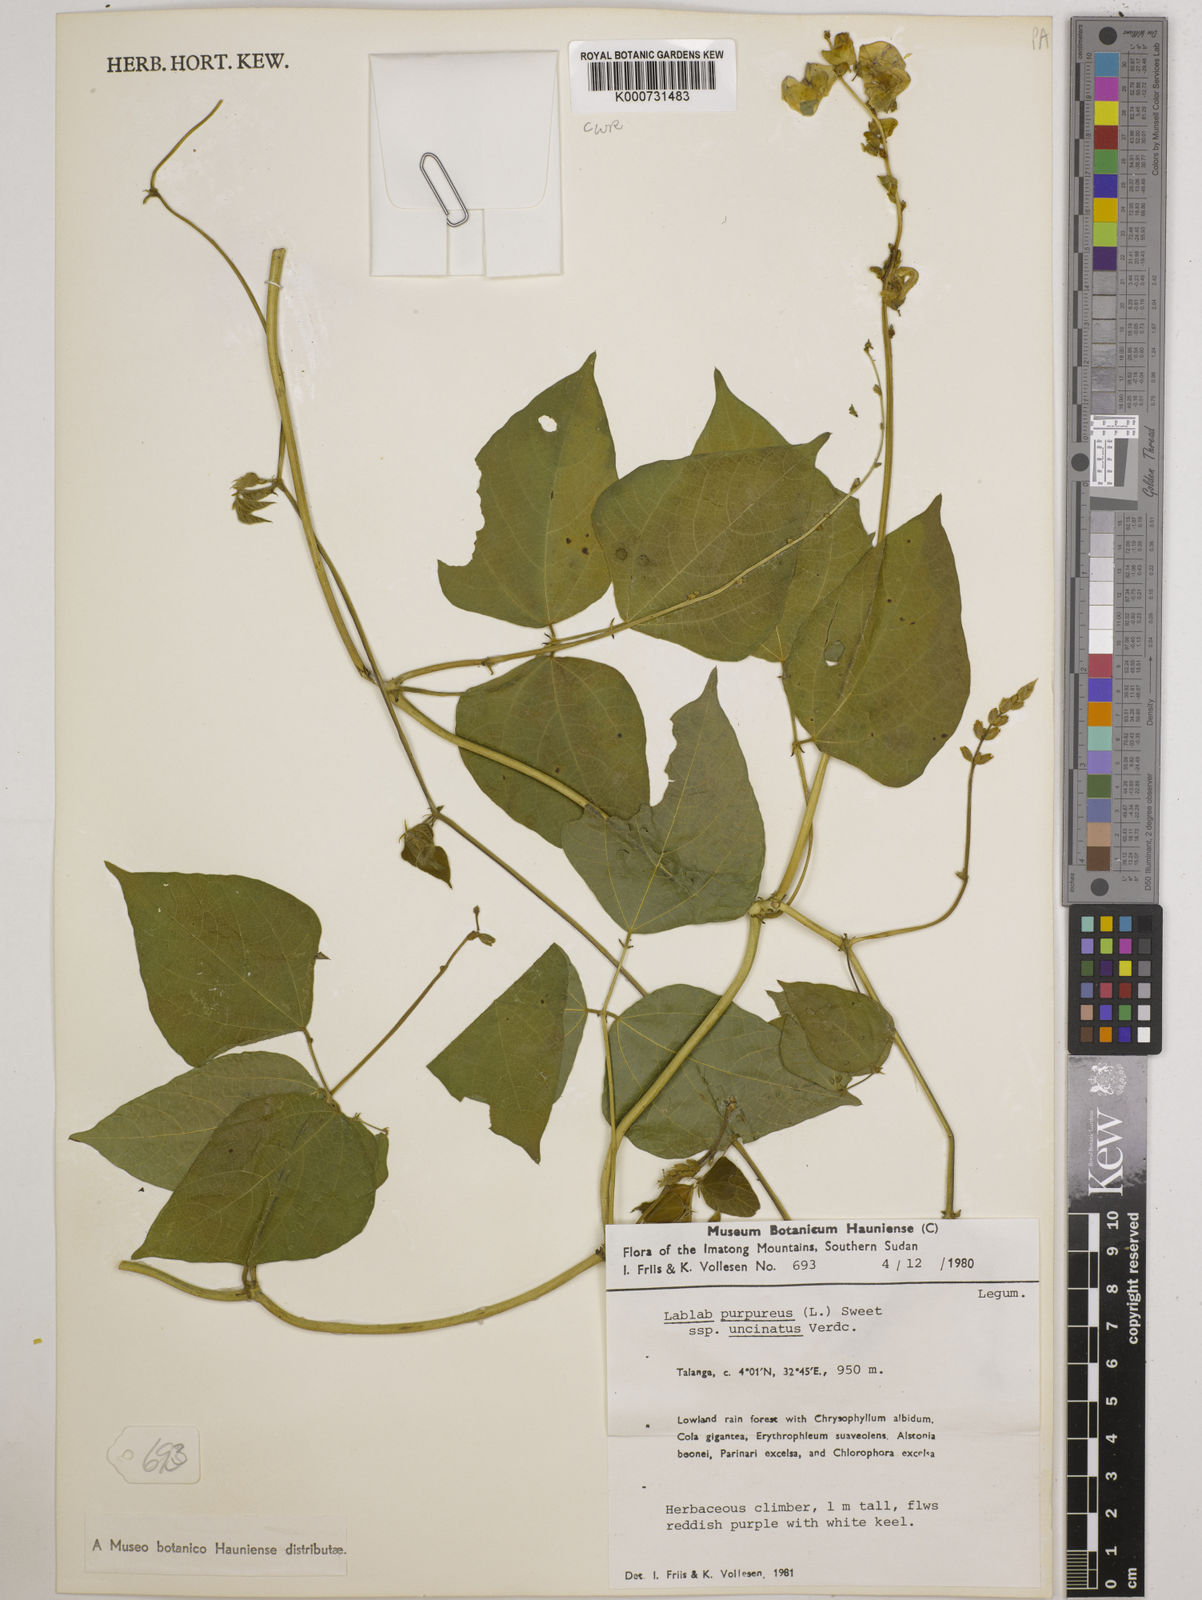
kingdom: Plantae
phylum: Tracheophyta
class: Magnoliopsida
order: Fabales
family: Fabaceae
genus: Lablab
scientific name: Lablab purpureus
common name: Lablab-bean
